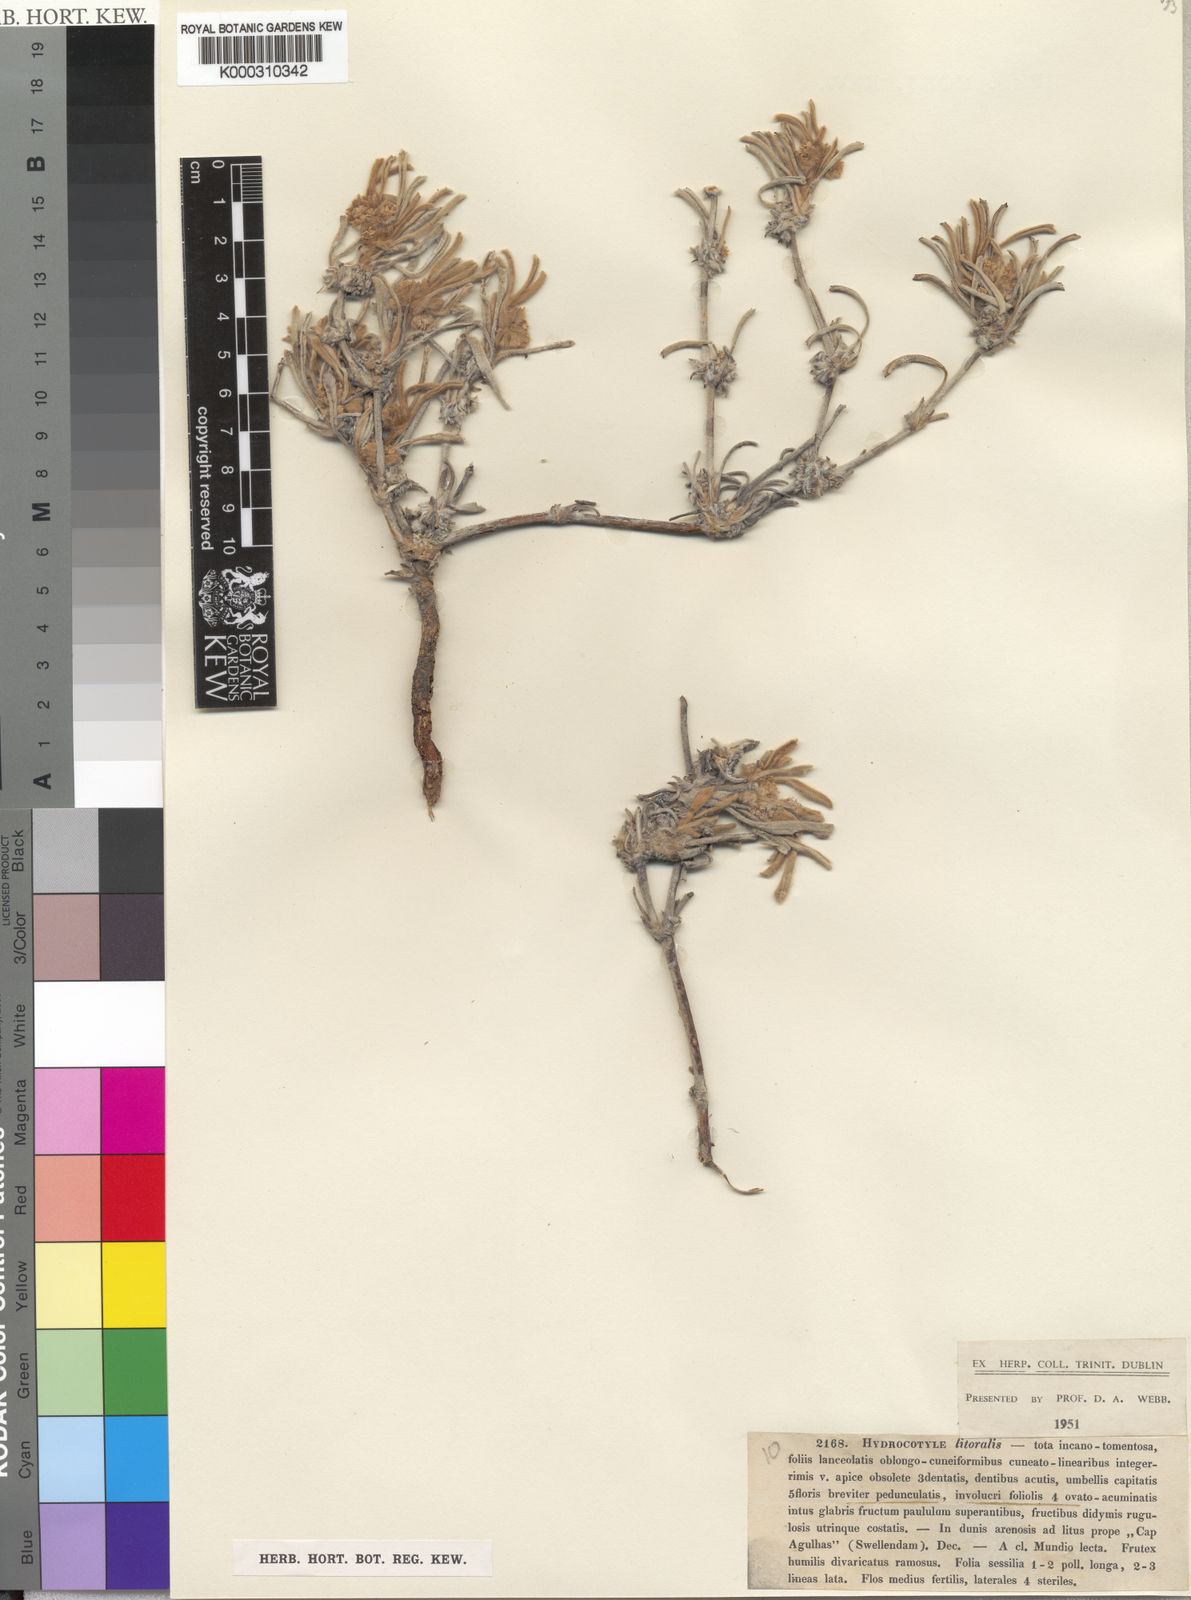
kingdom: Plantae
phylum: Tracheophyta
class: Magnoliopsida
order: Apiales
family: Apiaceae
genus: Centella
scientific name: Centella
